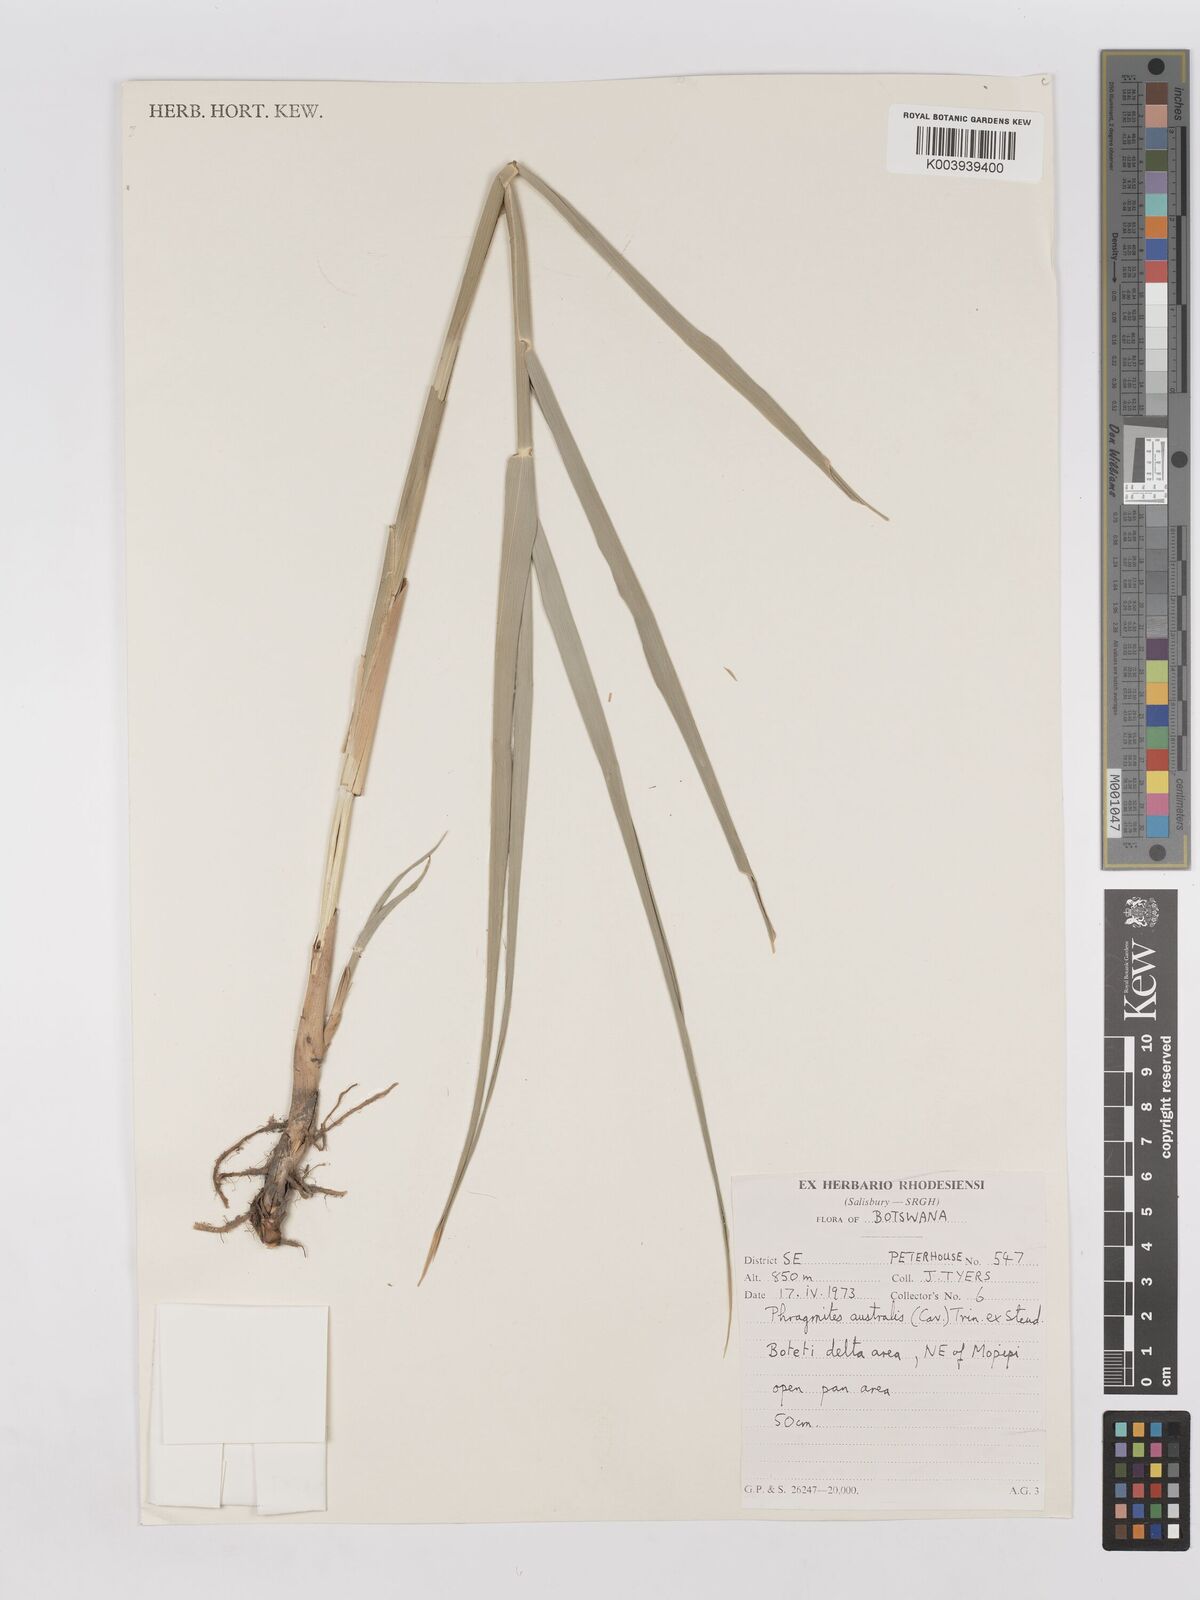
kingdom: Plantae
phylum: Tracheophyta
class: Liliopsida
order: Poales
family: Poaceae
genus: Phragmites
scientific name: Phragmites australis
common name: Common reed
